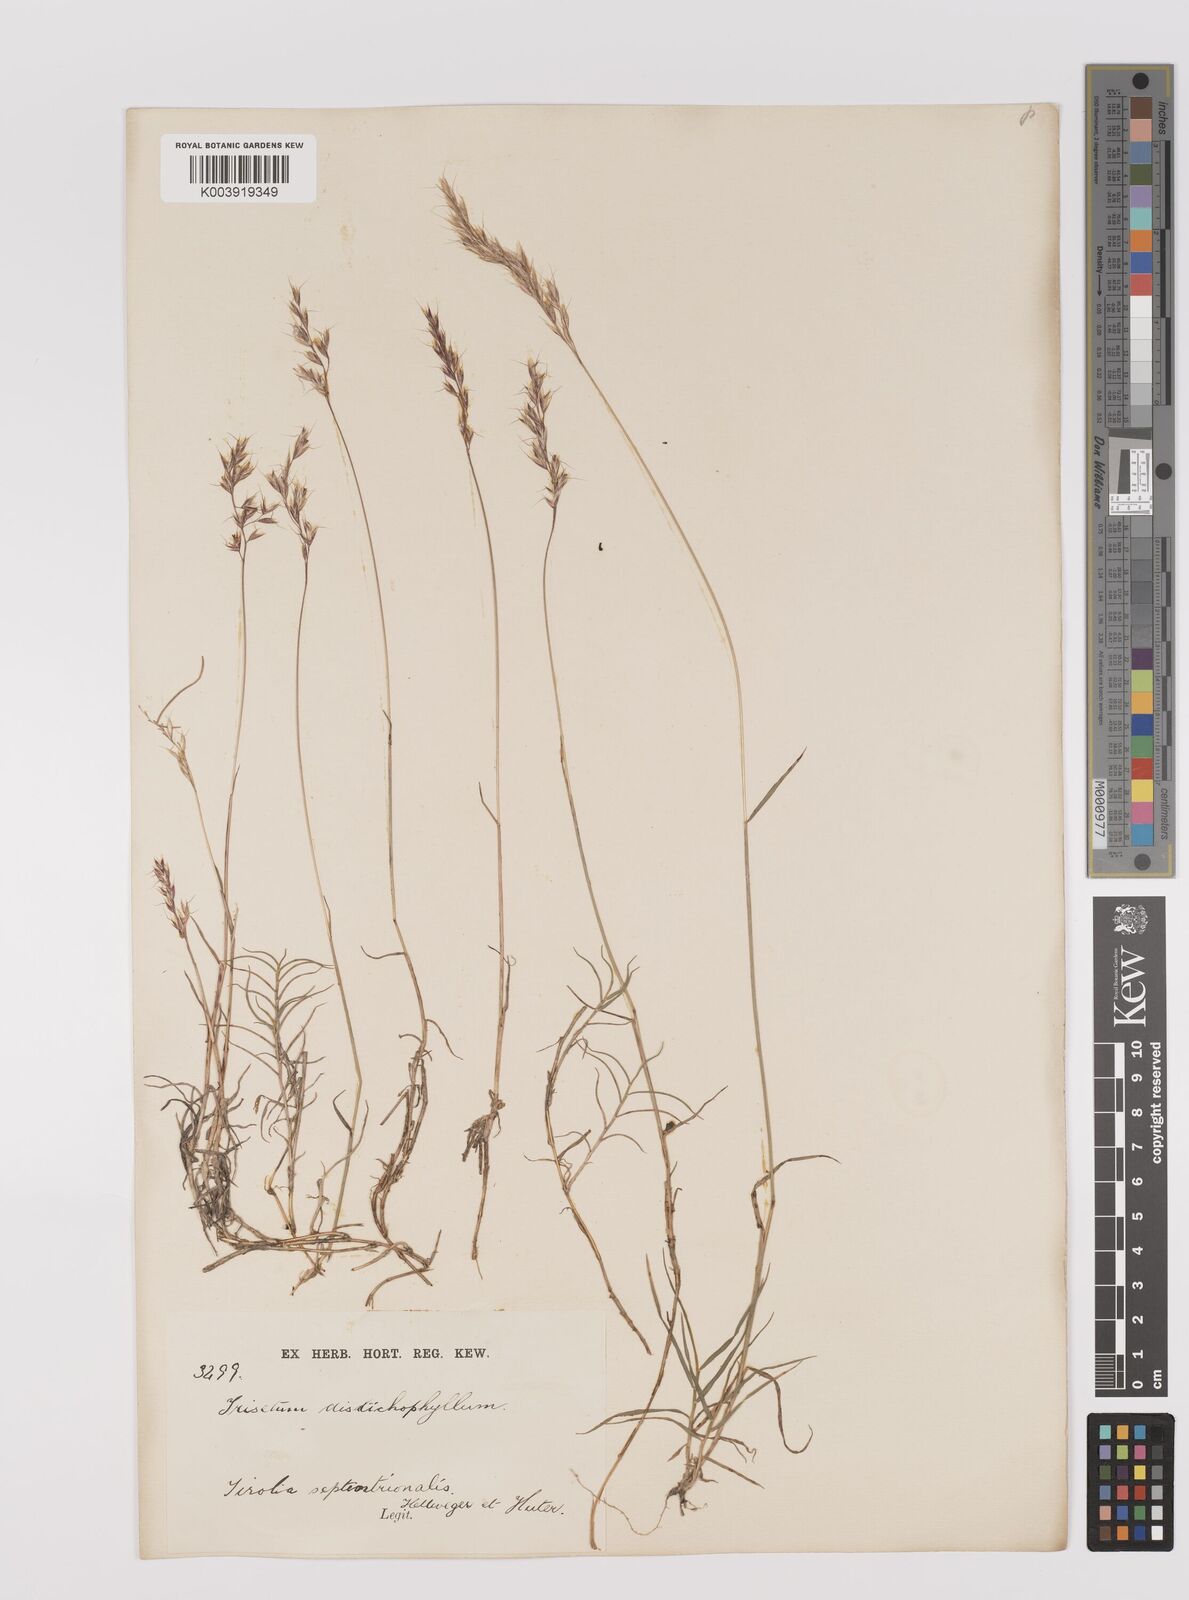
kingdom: Plantae
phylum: Tracheophyta
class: Liliopsida
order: Poales
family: Poaceae
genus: Acrospelion
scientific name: Acrospelion distichophyllum
